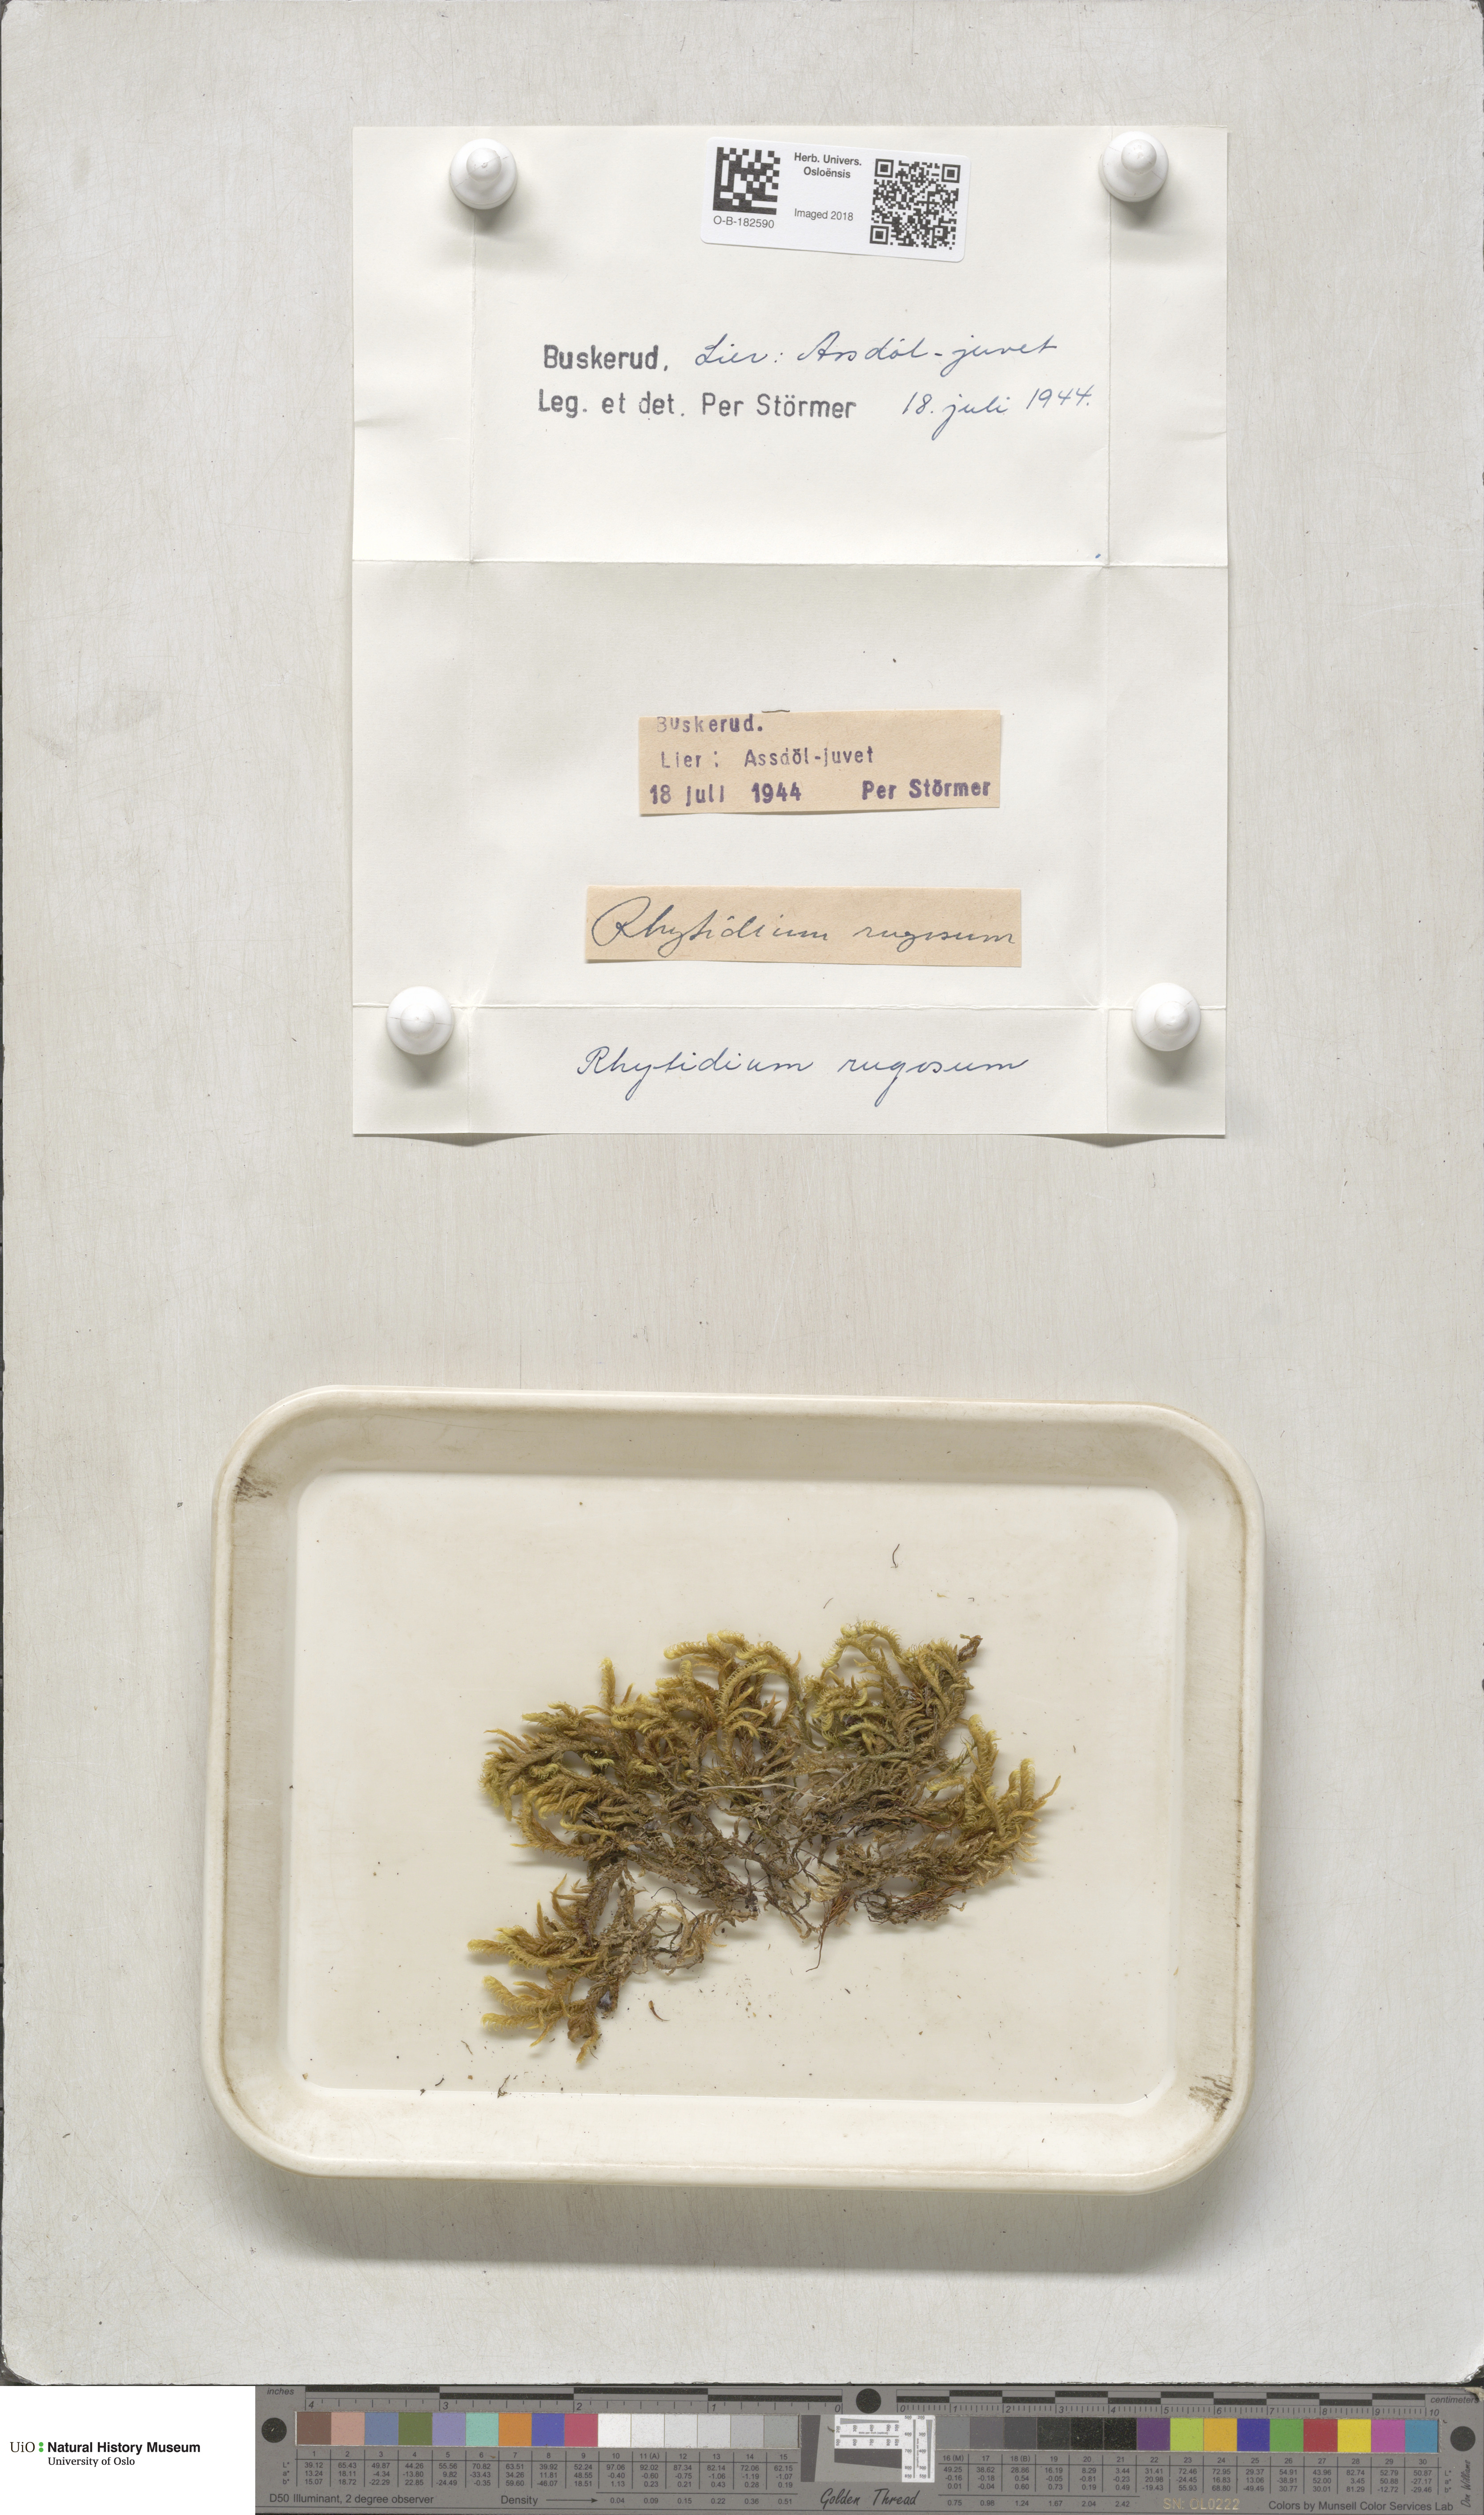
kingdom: Plantae
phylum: Bryophyta
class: Bryopsida
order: Hypnales
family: Rhytidiaceae
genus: Rhytidium
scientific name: Rhytidium rugosum
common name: Wrinkle-leaved moss
